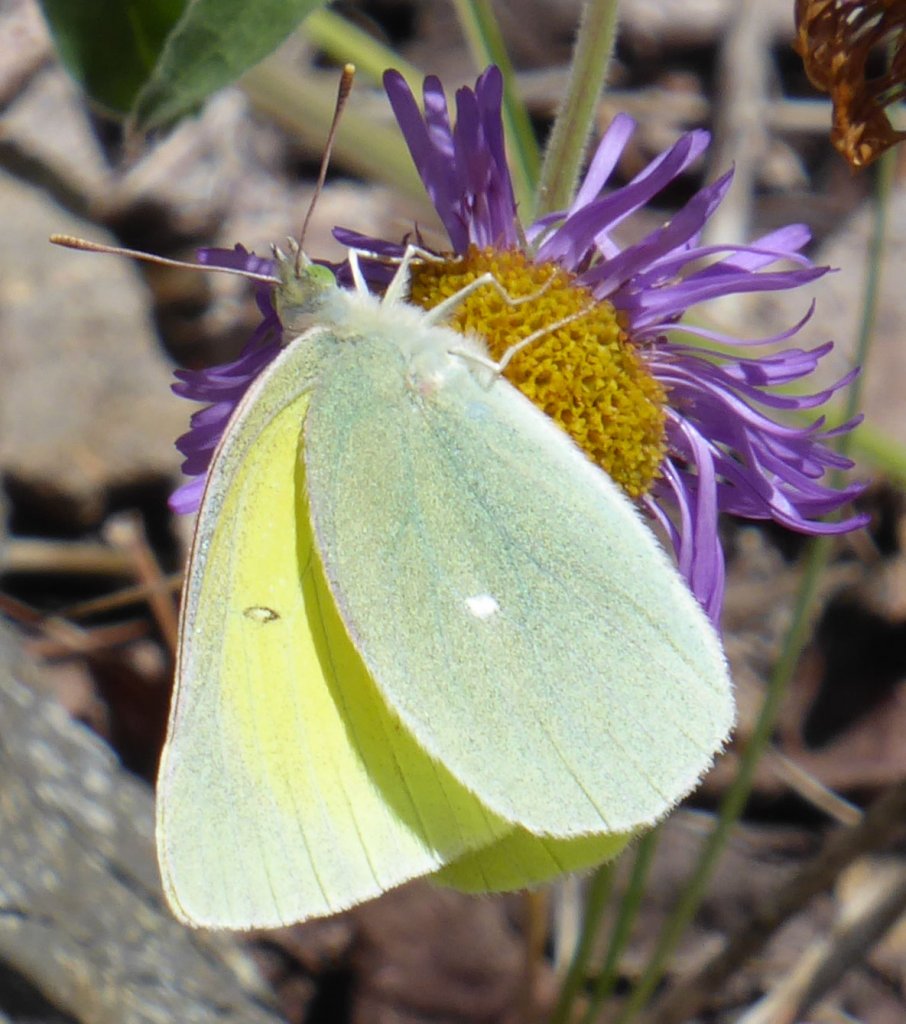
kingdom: Animalia
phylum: Arthropoda
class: Insecta
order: Lepidoptera
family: Pieridae
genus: Colias
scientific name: Colias alexandra
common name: Queen Alexandra's Sulphur
